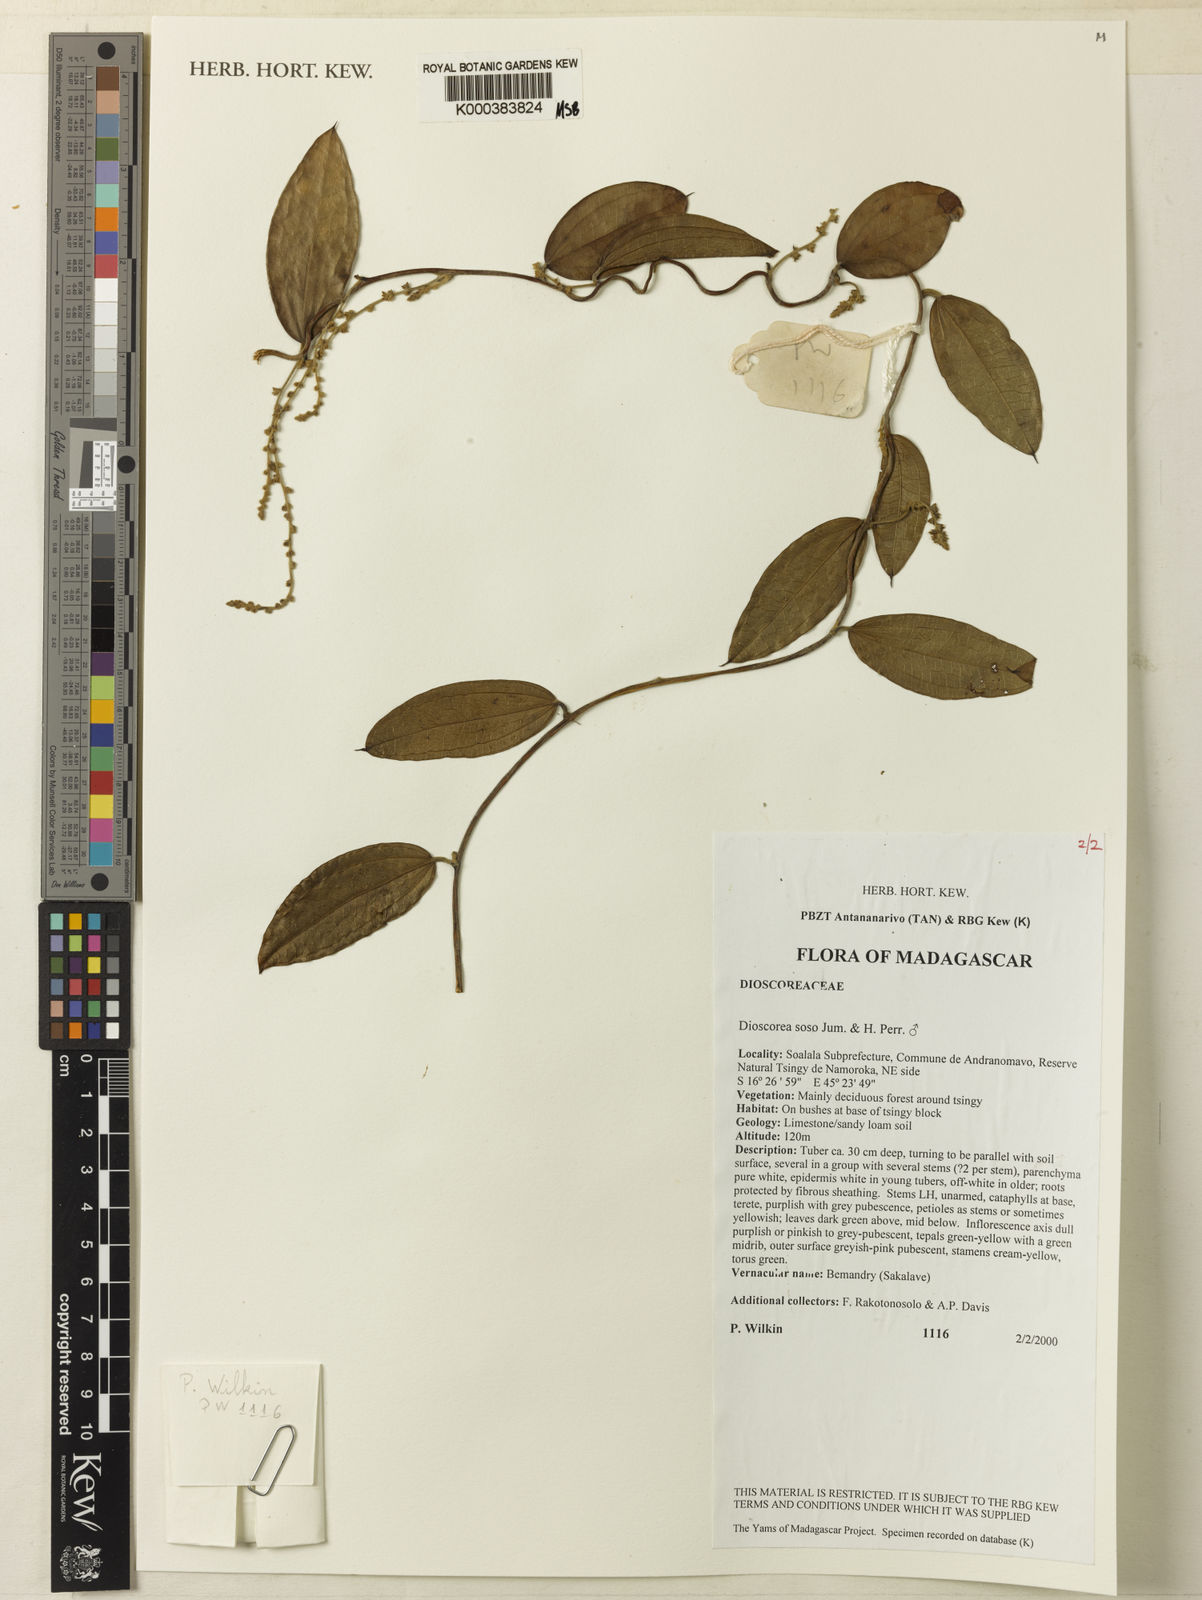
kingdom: Plantae
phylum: Tracheophyta
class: Liliopsida
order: Dioscoreales
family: Dioscoreaceae
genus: Dioscorea
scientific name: Dioscorea
